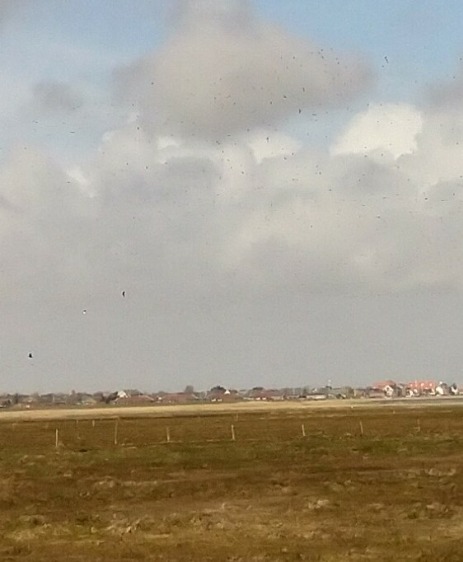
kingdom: Animalia
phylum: Chordata
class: Aves
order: Charadriiformes
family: Charadriidae
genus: Pluvialis
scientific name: Pluvialis apricaria
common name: Hjejle
